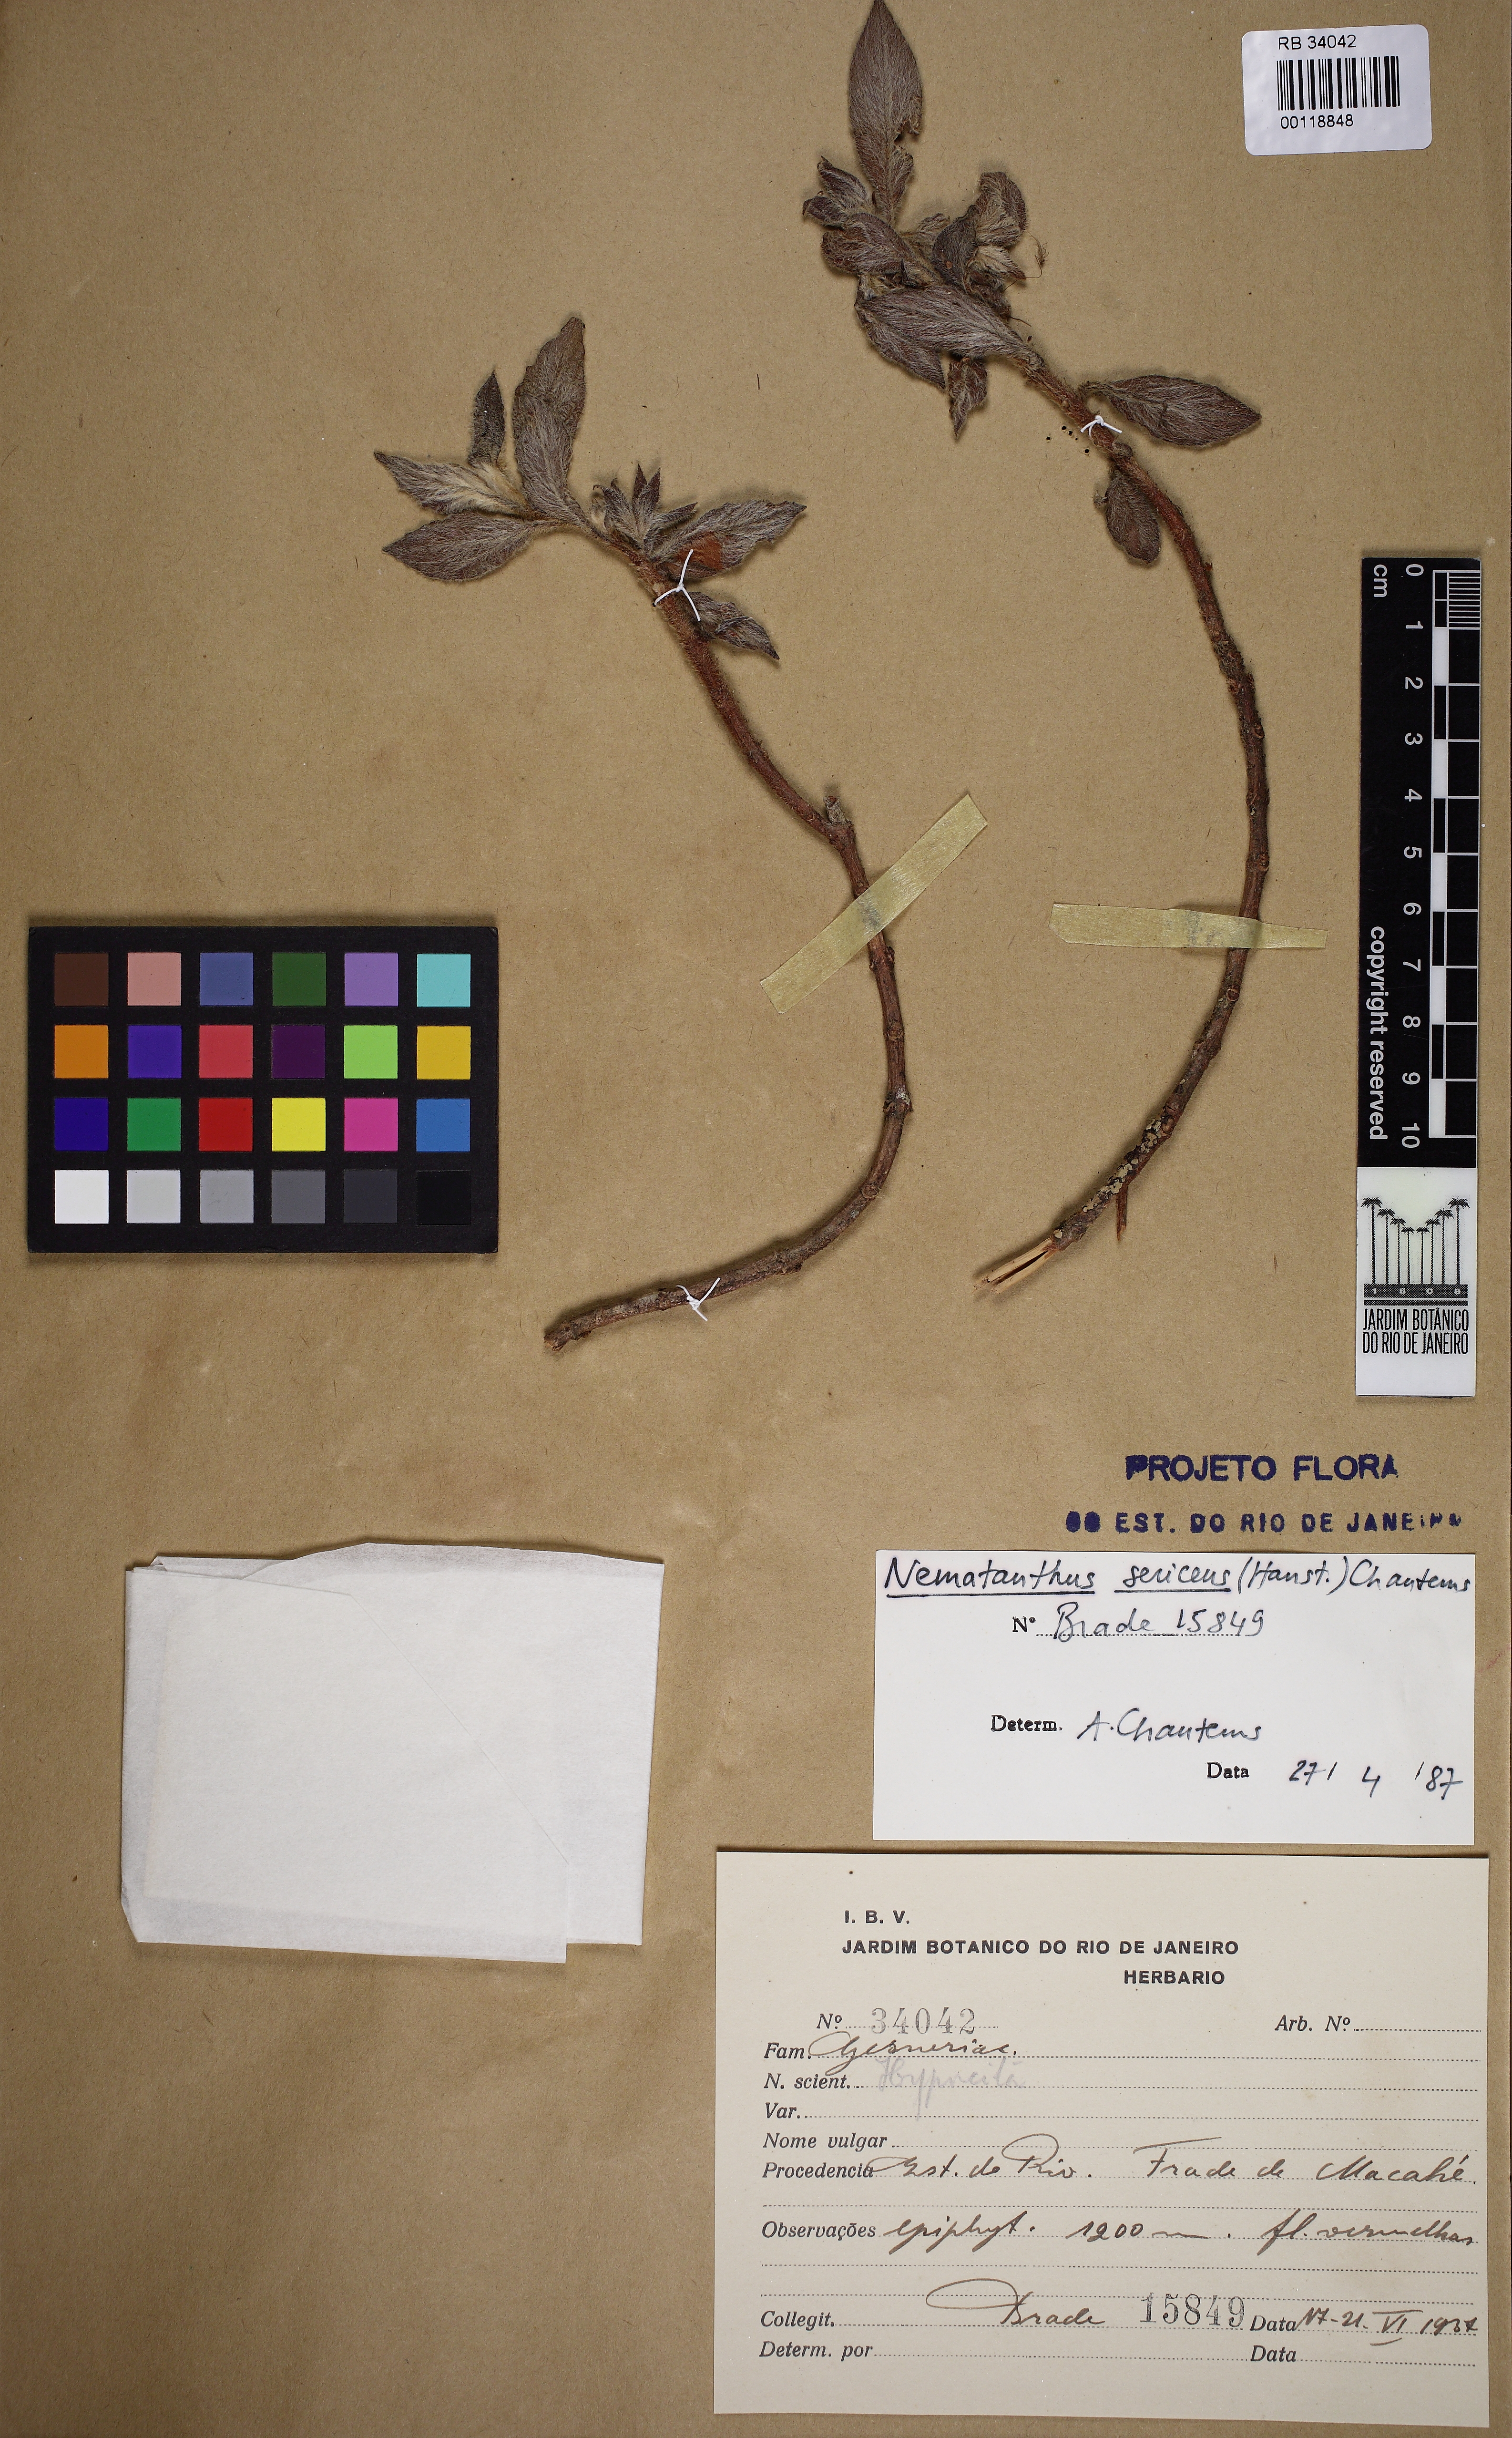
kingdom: Plantae
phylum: Tracheophyta
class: Magnoliopsida
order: Lamiales
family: Gesneriaceae
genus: Nematanthus
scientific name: Nematanthus sericeus
